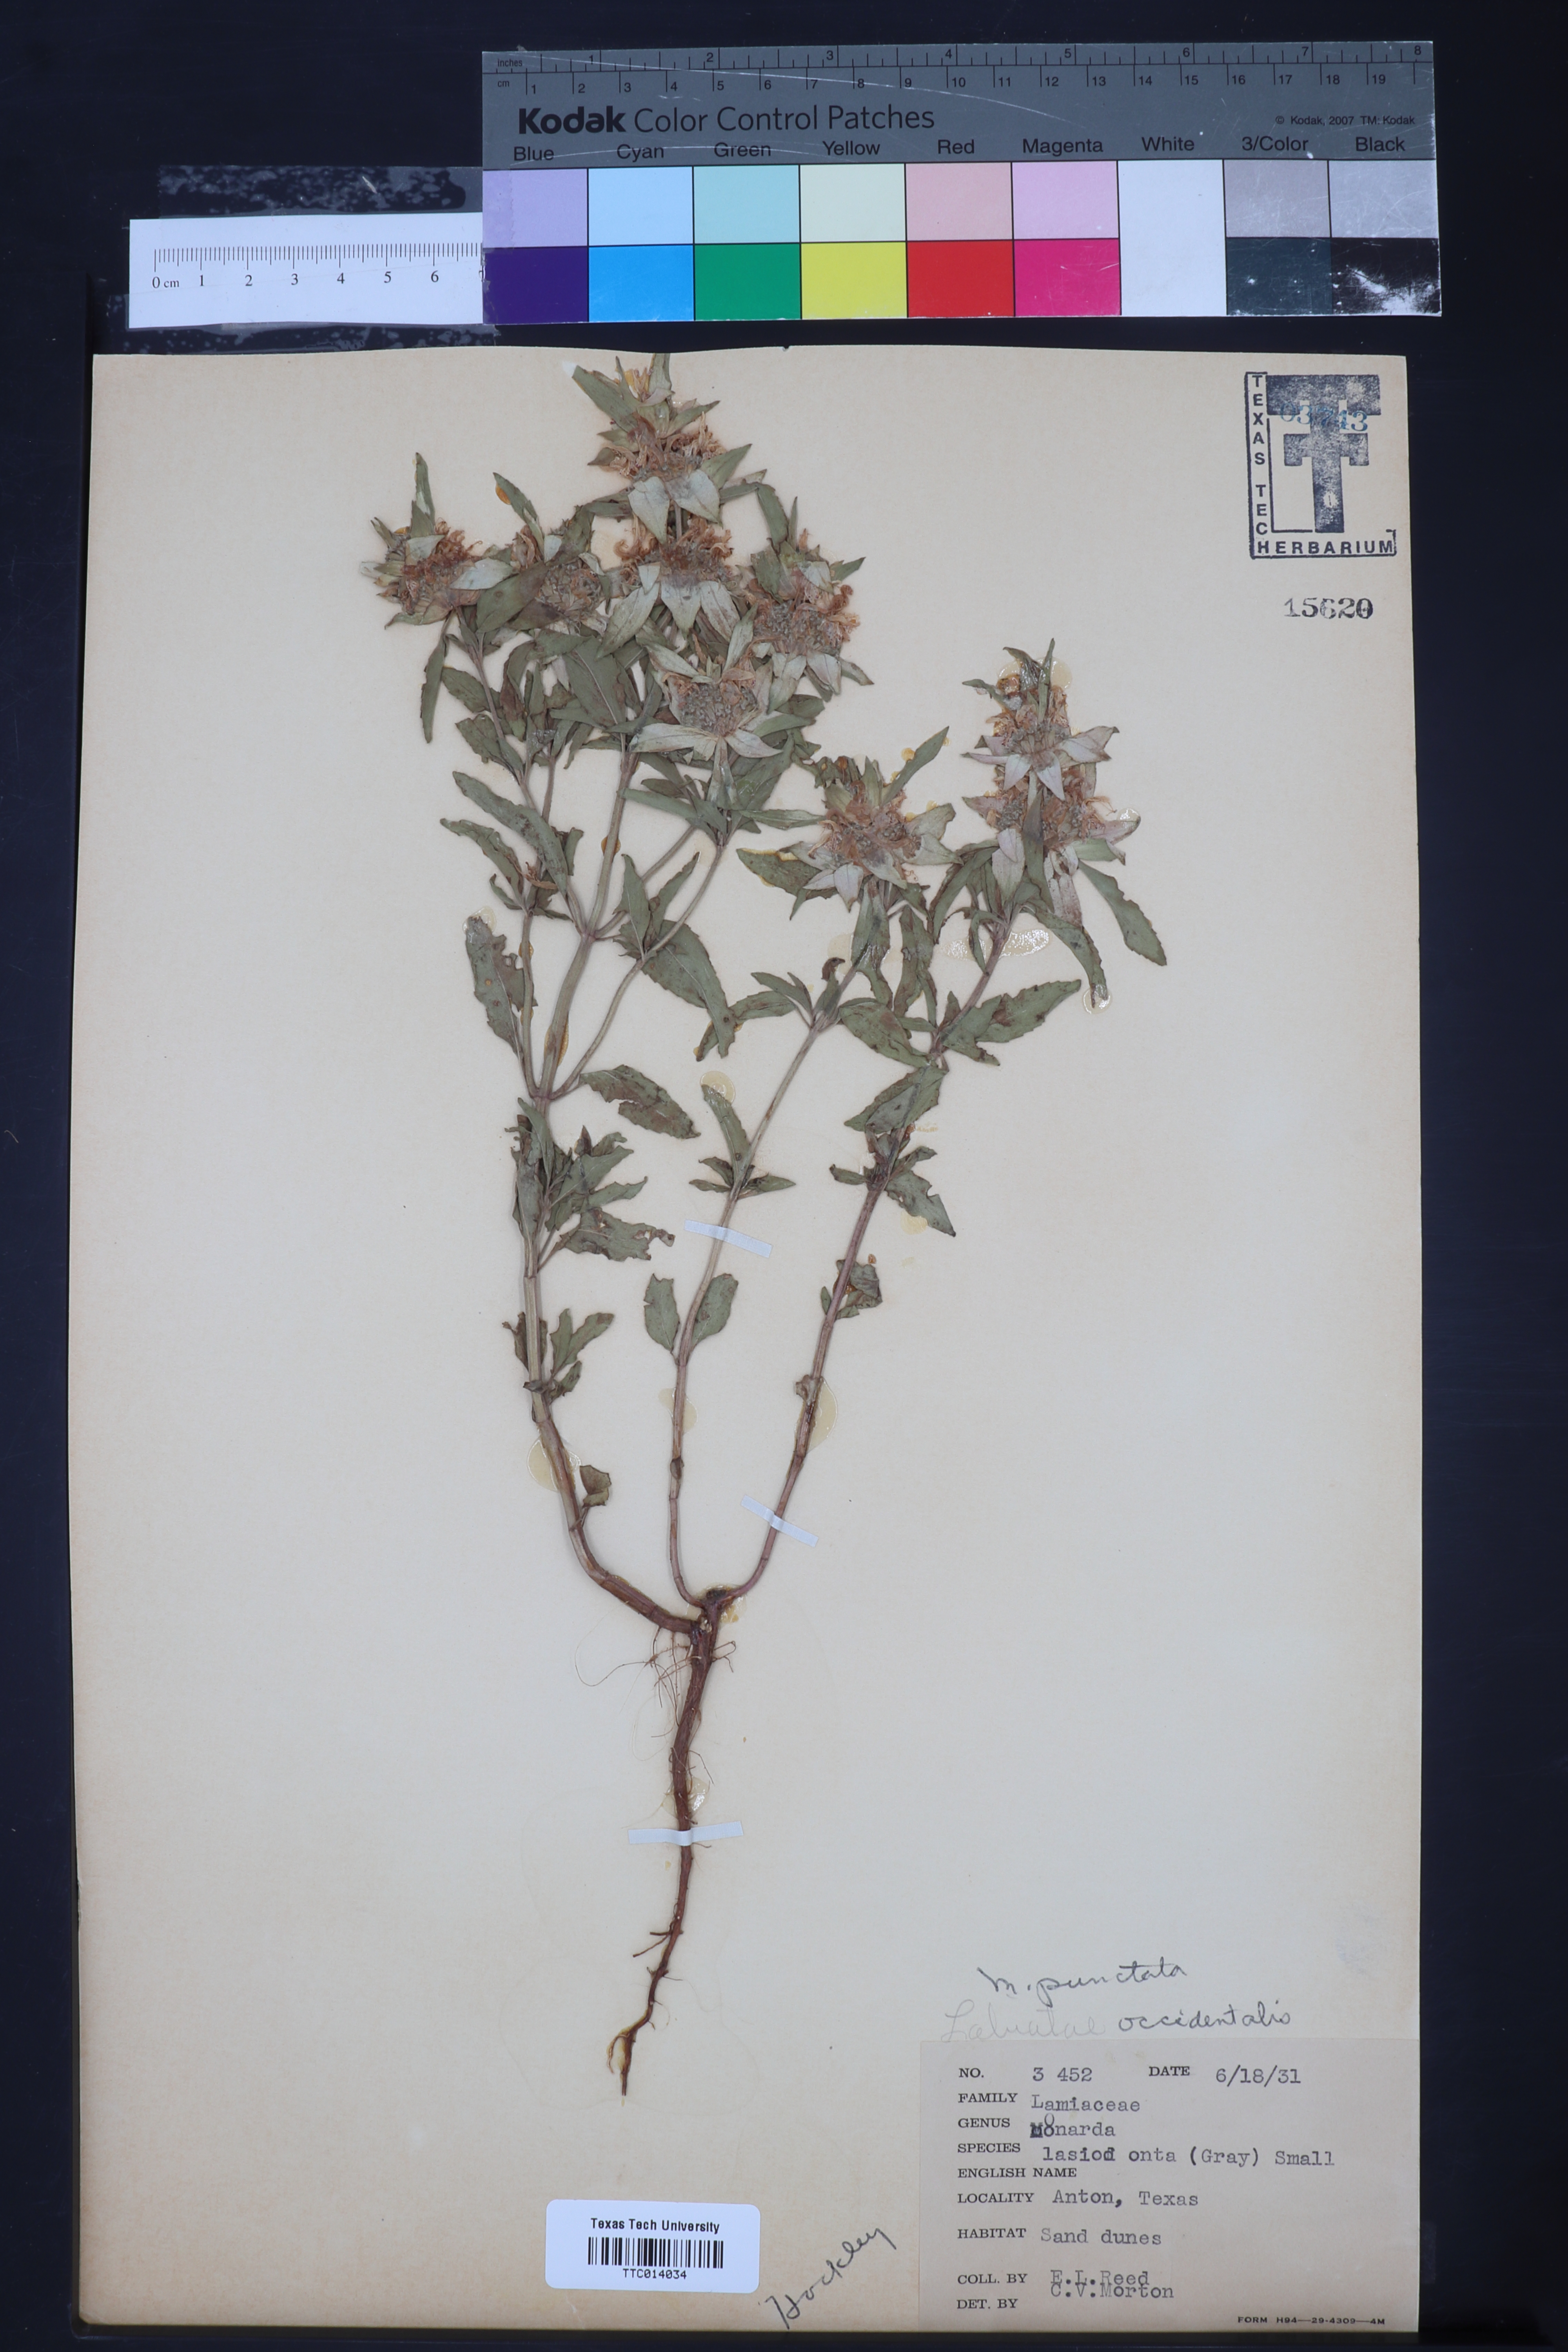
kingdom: Plantae
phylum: Tracheophyta
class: Magnoliopsida
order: Lamiales
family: Lamiaceae
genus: Monarda
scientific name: Monarda punctata
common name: Dotted monarda
